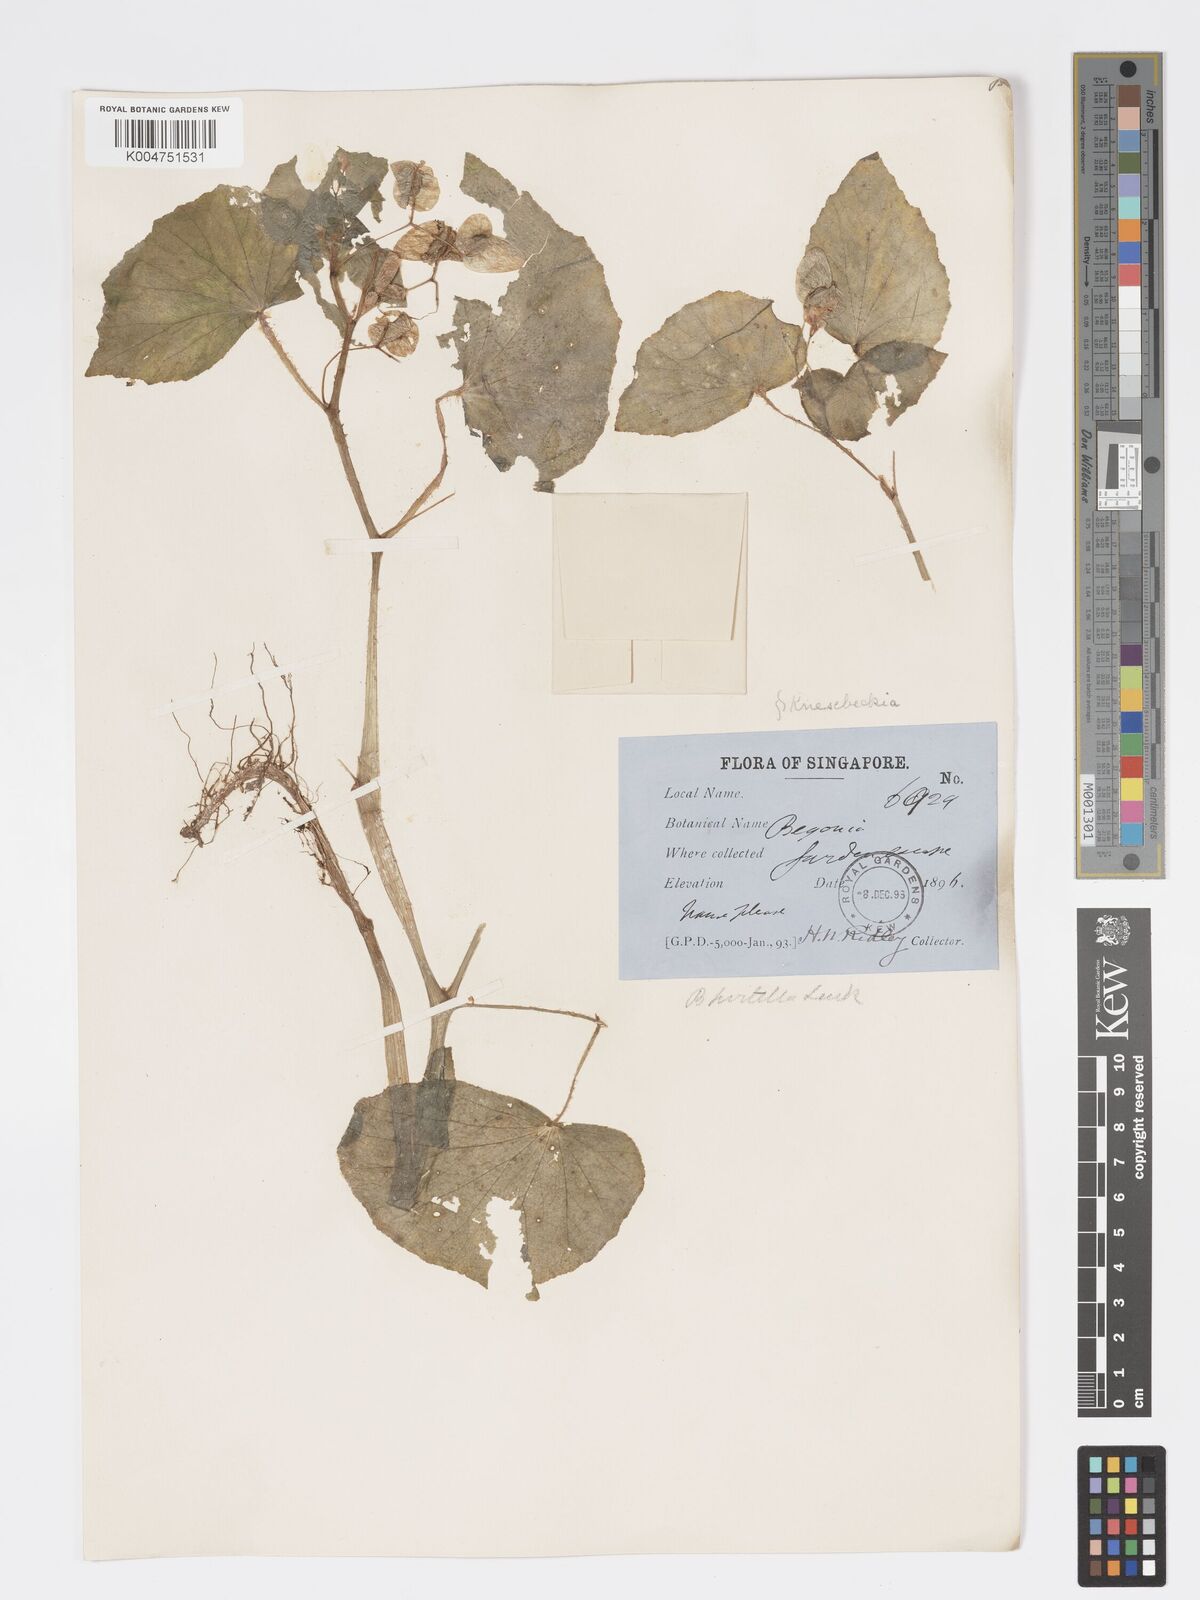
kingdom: Plantae
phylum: Tracheophyta
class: Magnoliopsida
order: Cucurbitales
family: Begoniaceae
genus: Begonia
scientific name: Begonia
